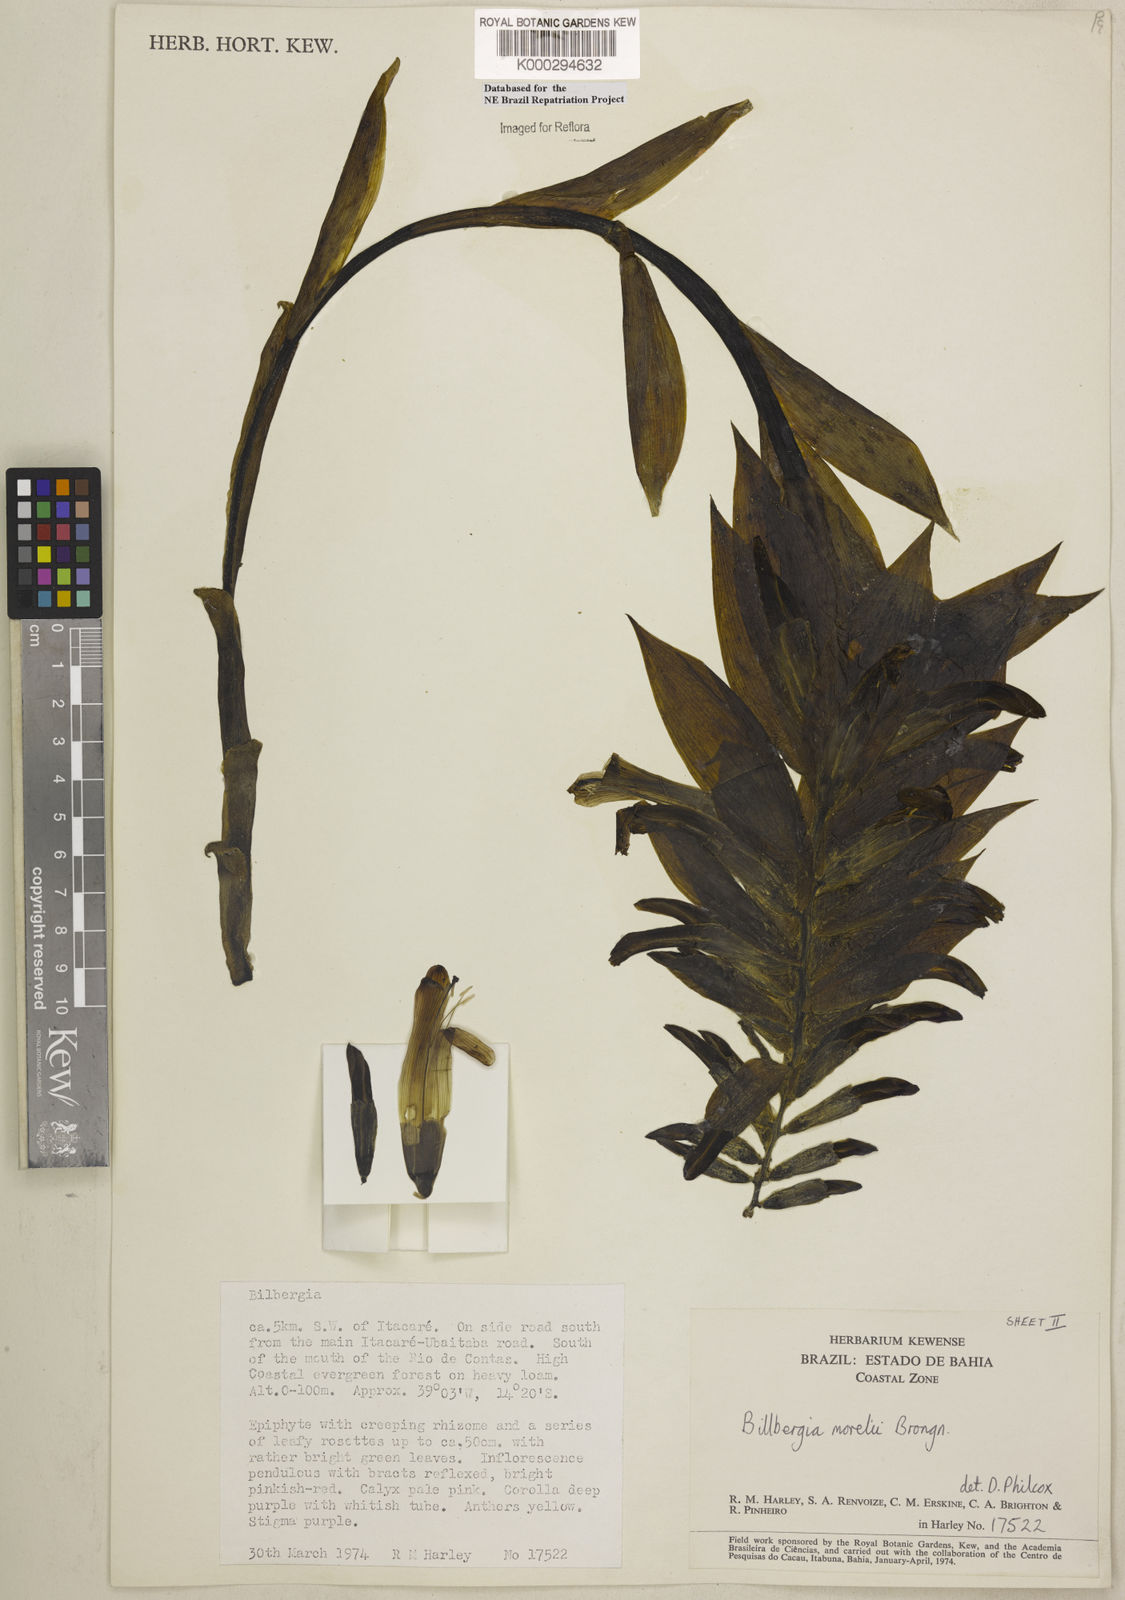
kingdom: Plantae
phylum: Tracheophyta
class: Liliopsida
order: Poales
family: Bromeliaceae
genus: Billbergia
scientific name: Billbergia morelii
